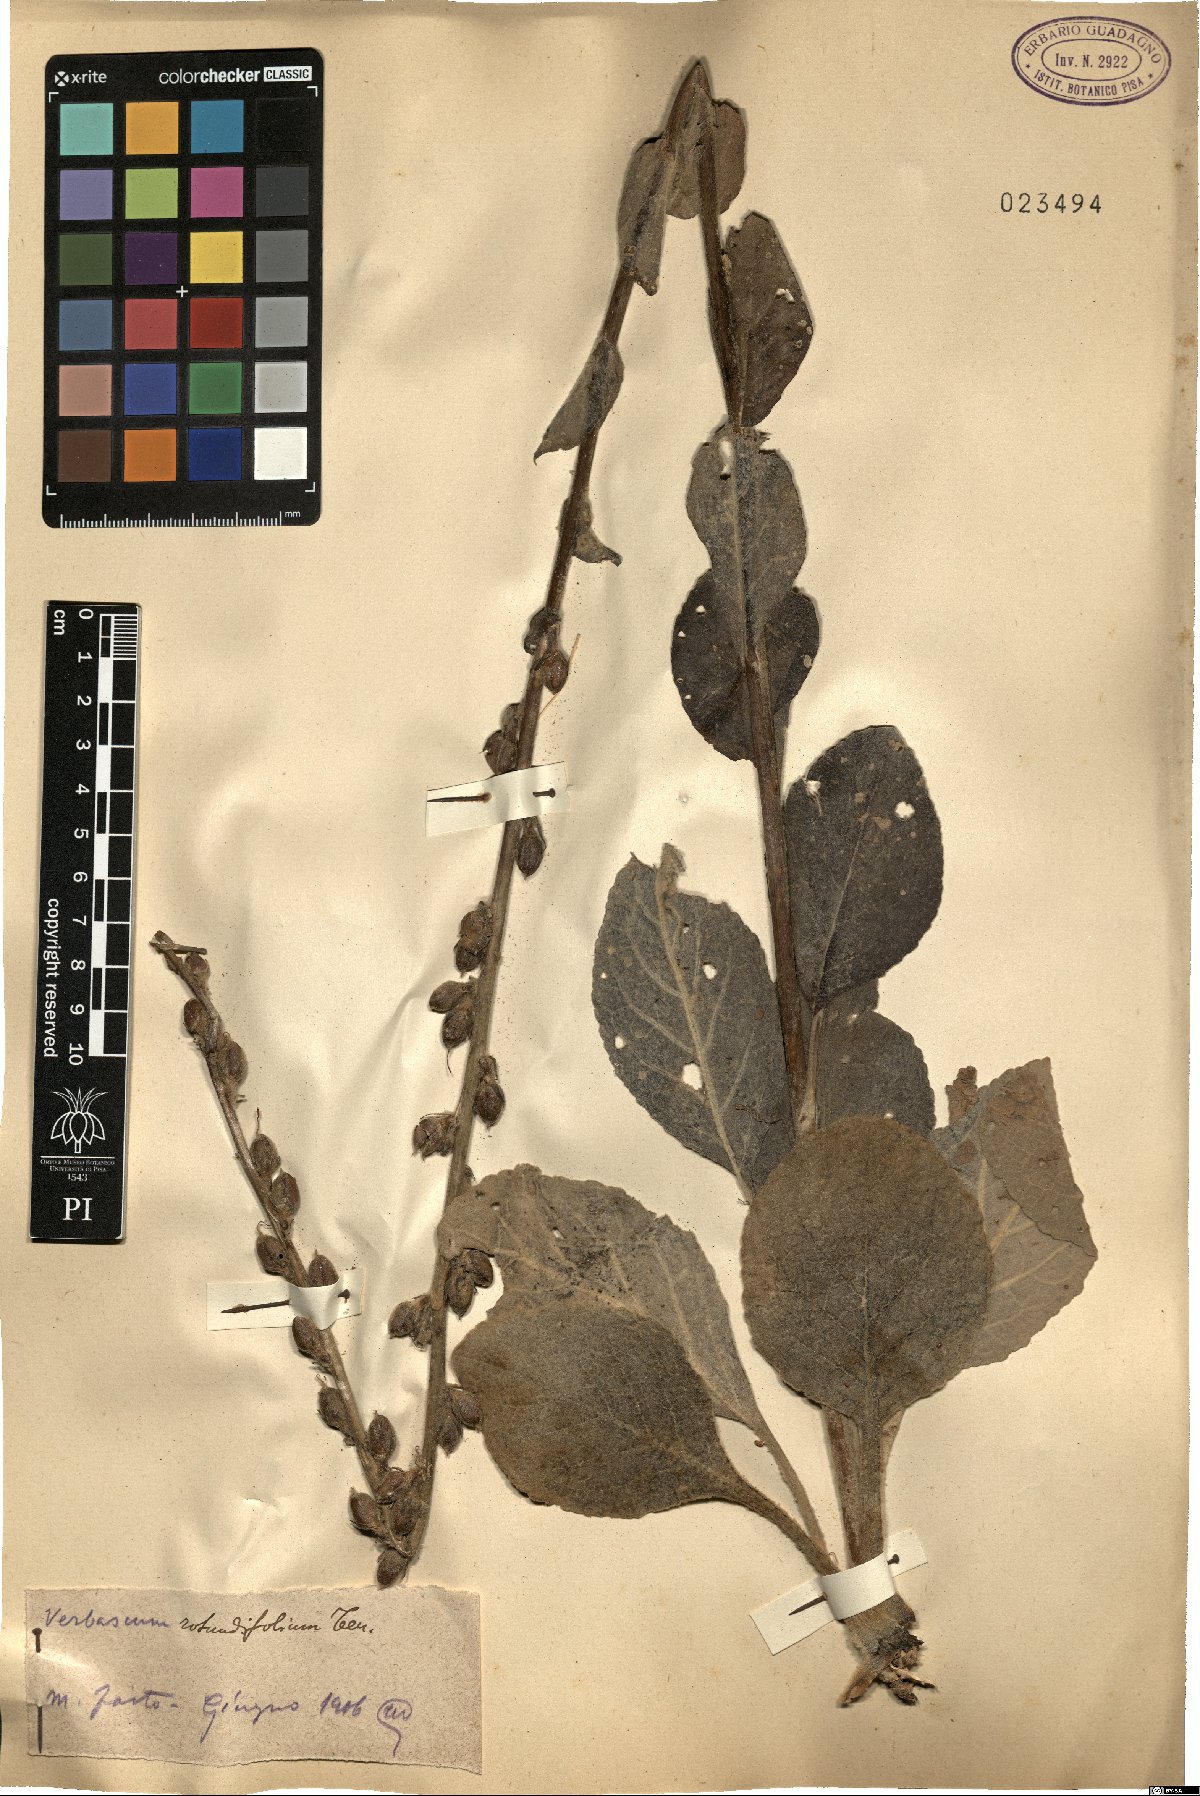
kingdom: Plantae
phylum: Tracheophyta
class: Magnoliopsida
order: Lamiales
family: Scrophulariaceae
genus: Verbascum
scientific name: Verbascum rotundifolium
